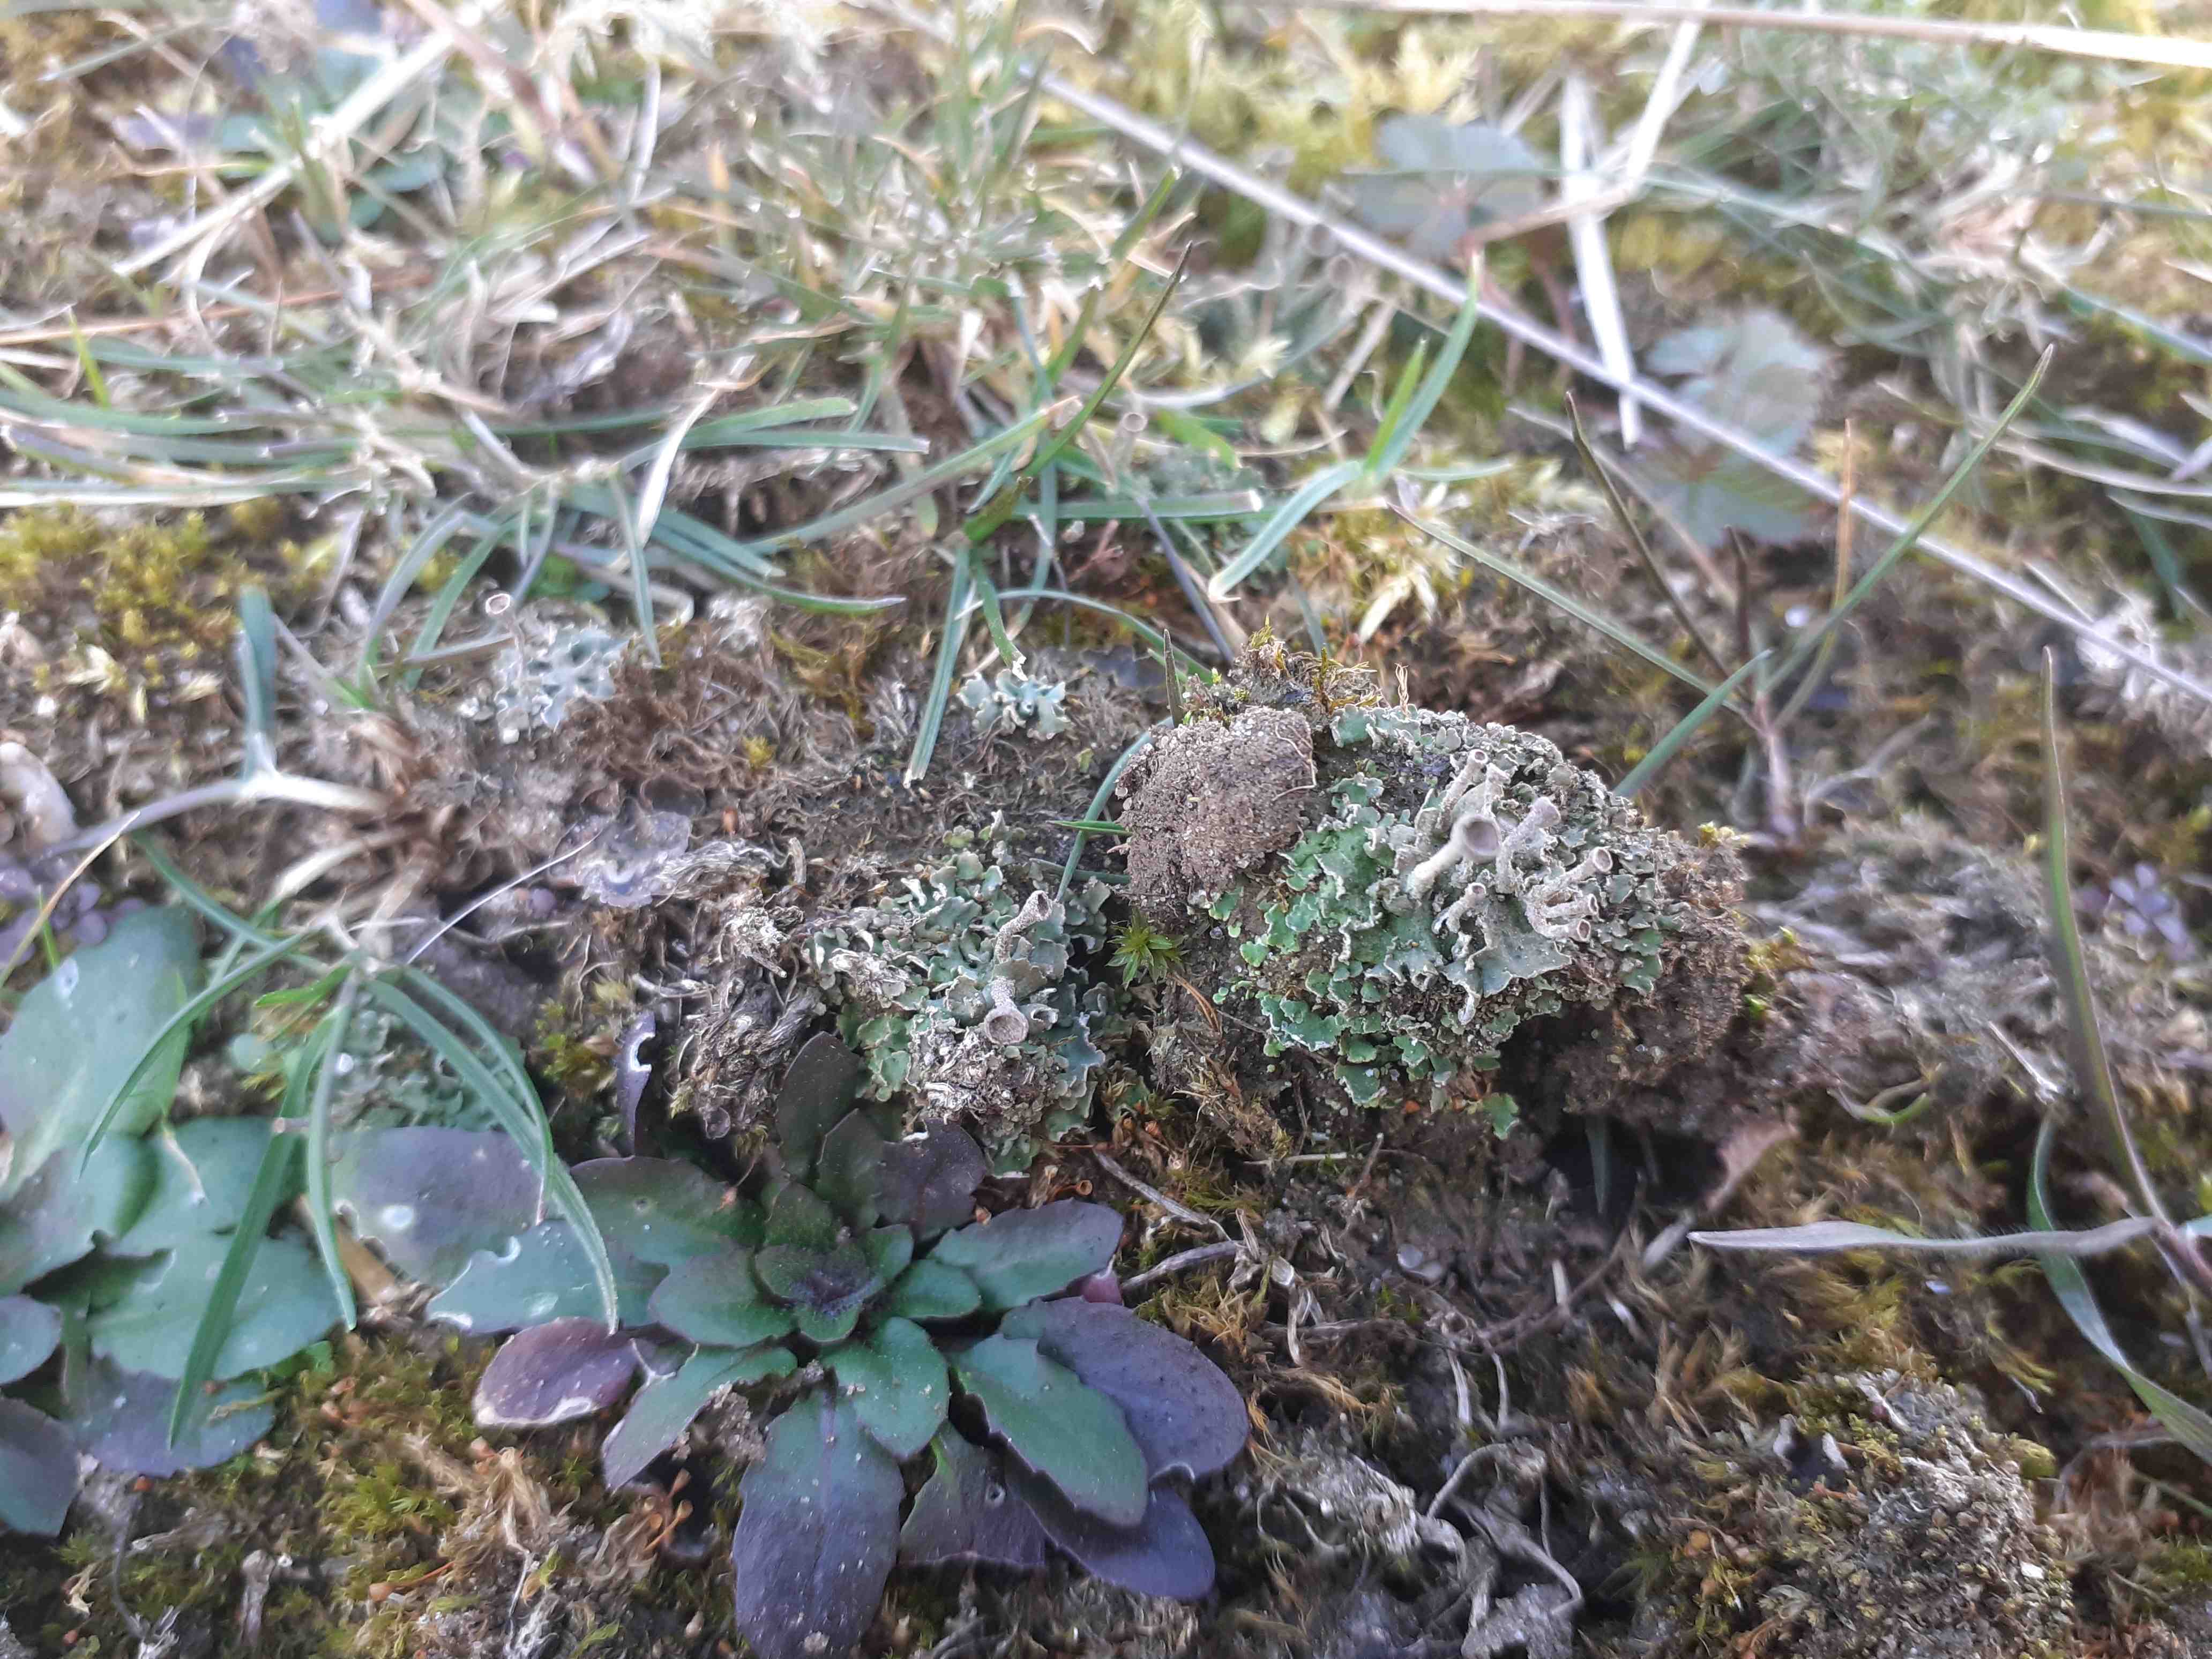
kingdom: Fungi
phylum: Ascomycota
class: Lecanoromycetes
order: Lecanorales
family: Cladoniaceae
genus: Cladonia
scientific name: Cladonia
